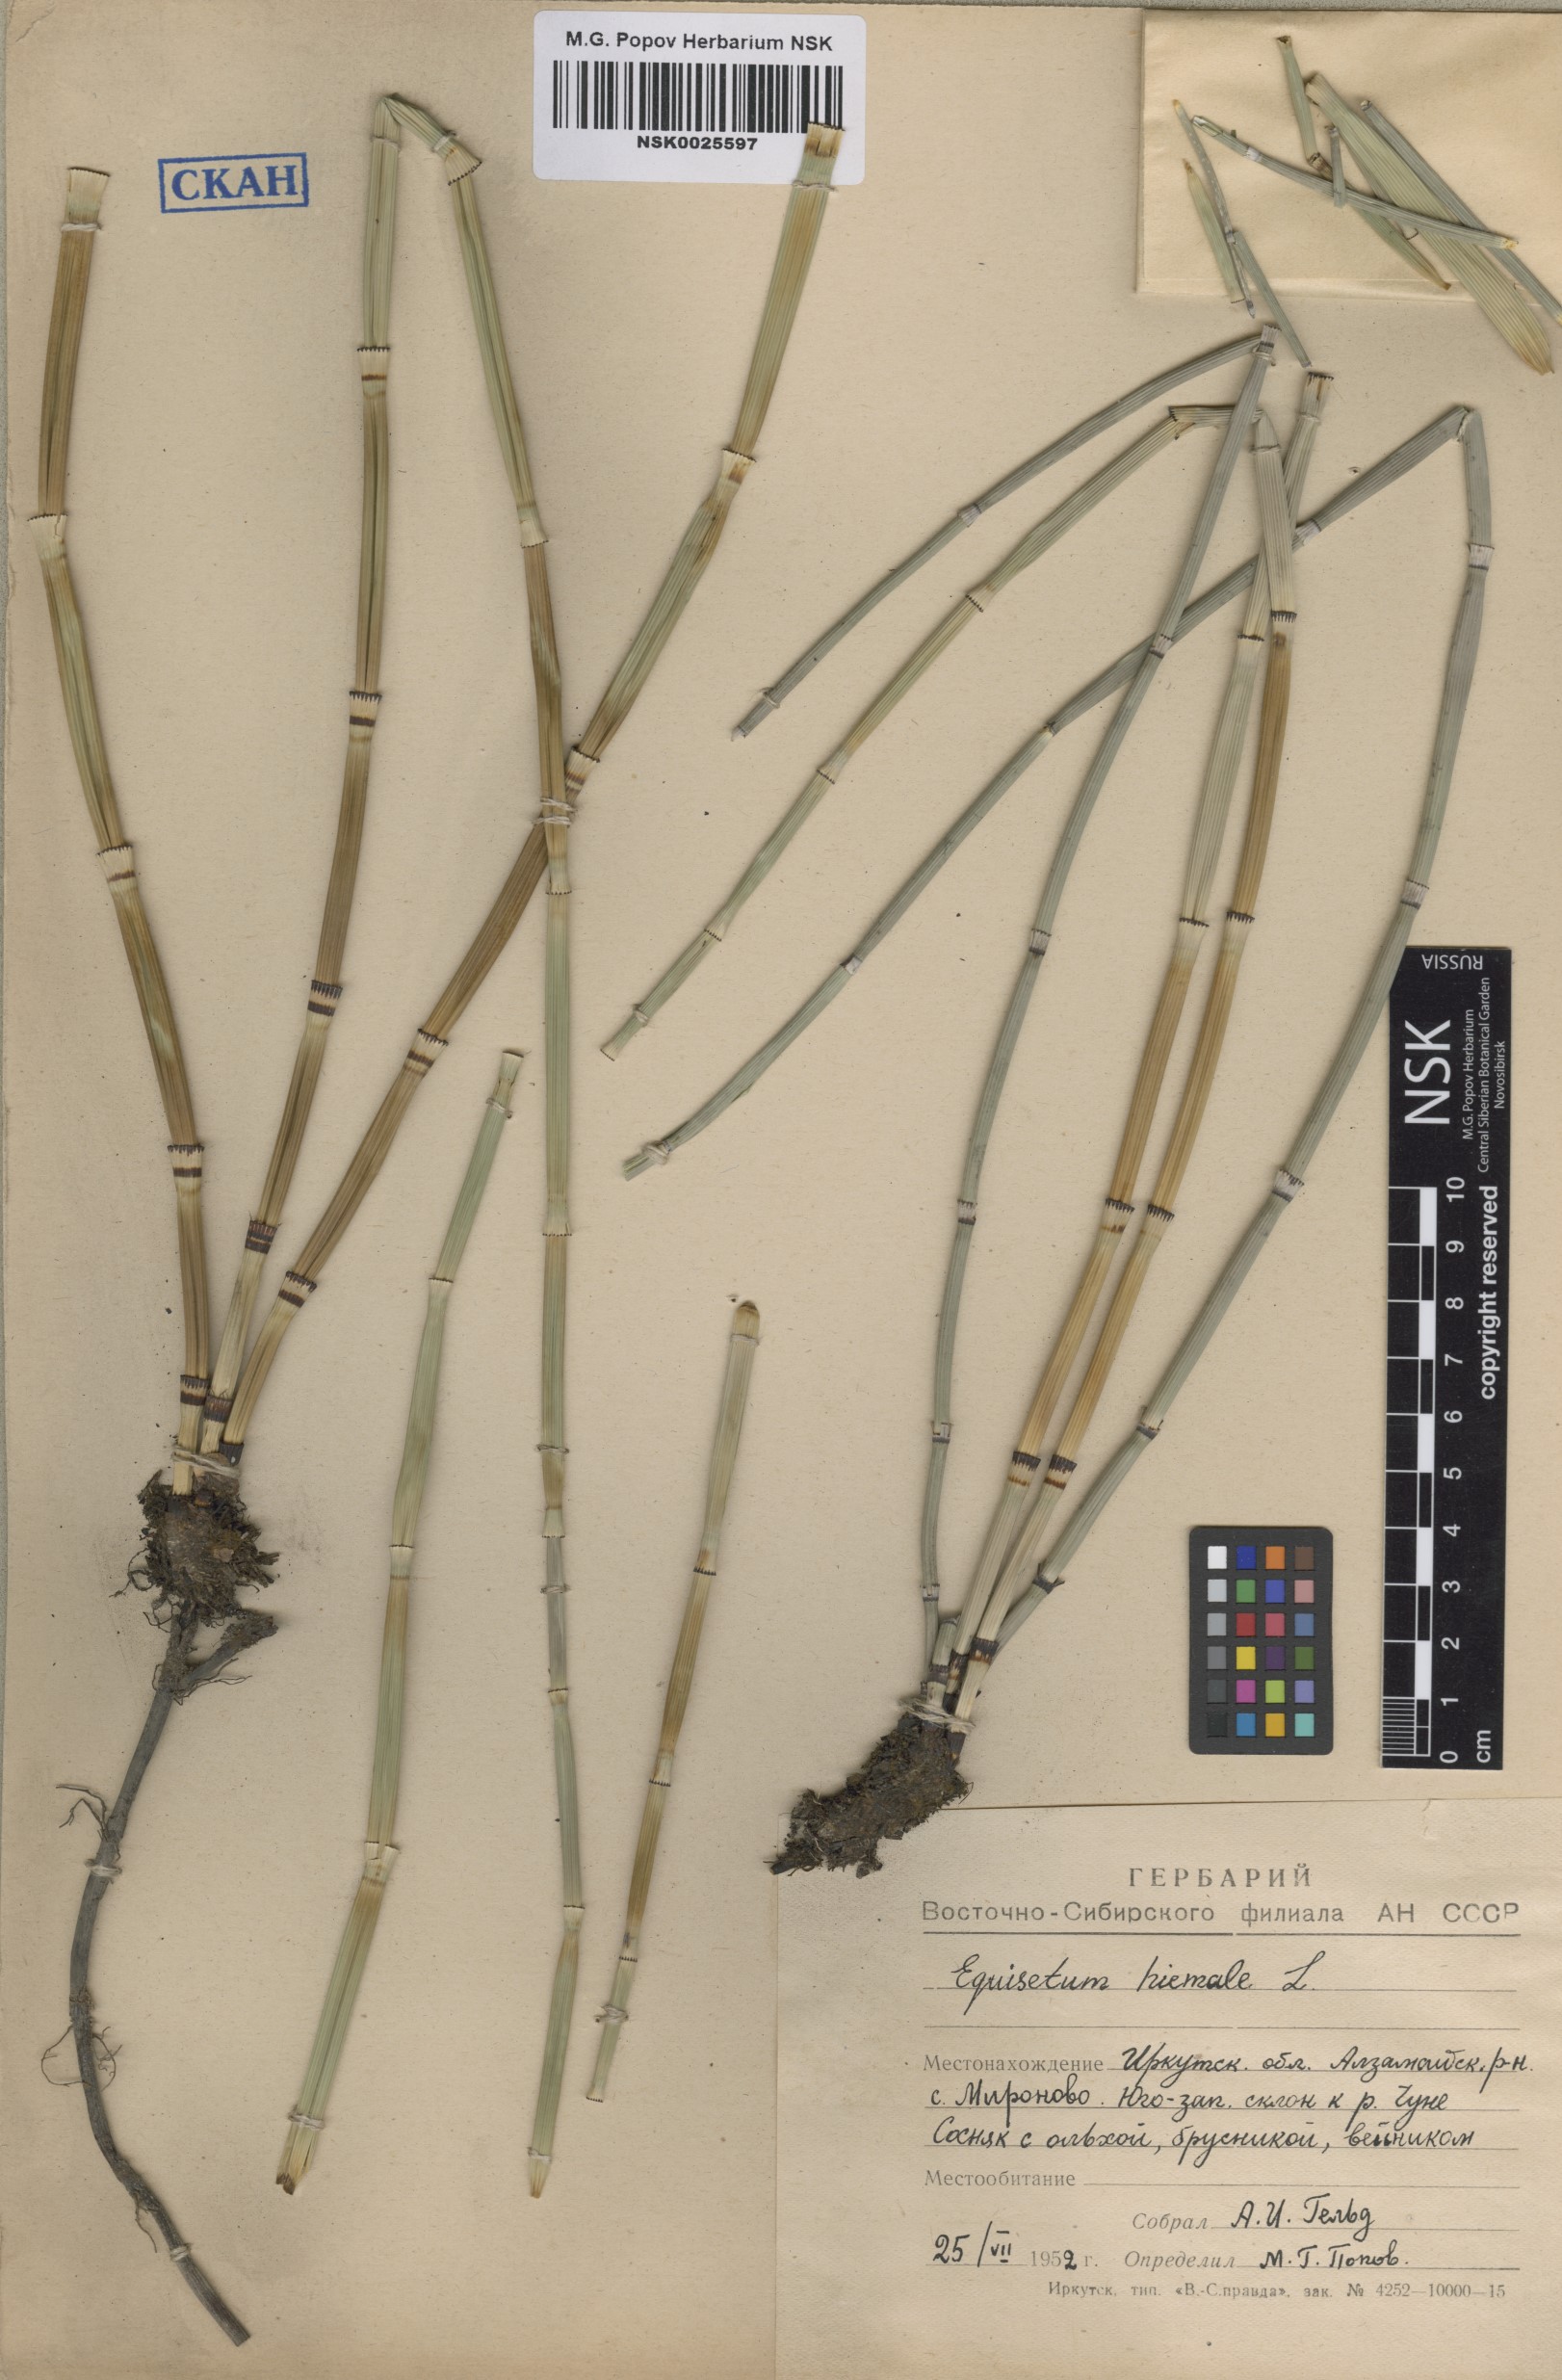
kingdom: Plantae
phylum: Tracheophyta
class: Polypodiopsida
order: Equisetales
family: Equisetaceae
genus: Equisetum
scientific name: Equisetum hyemale
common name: Rough horsetail
